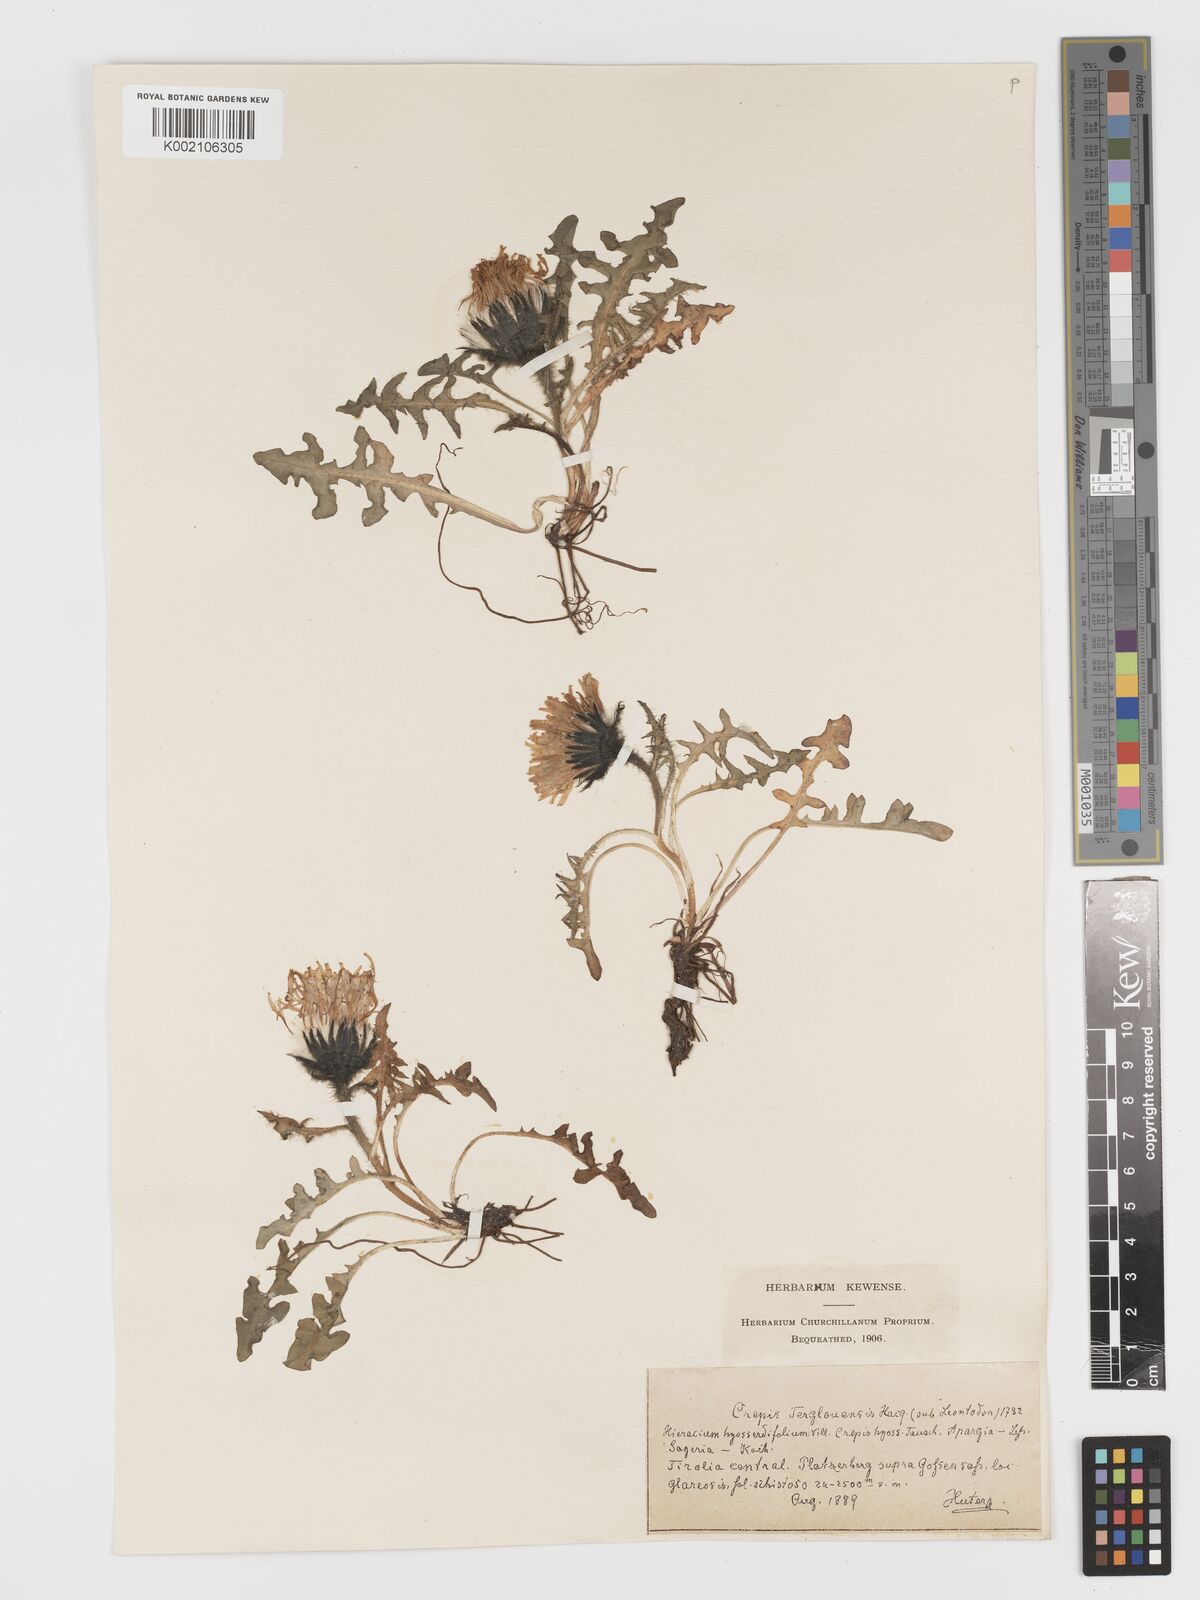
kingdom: Plantae
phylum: Tracheophyta
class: Magnoliopsida
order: Asterales
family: Asteraceae
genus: Crepis
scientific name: Crepis terglouensis
